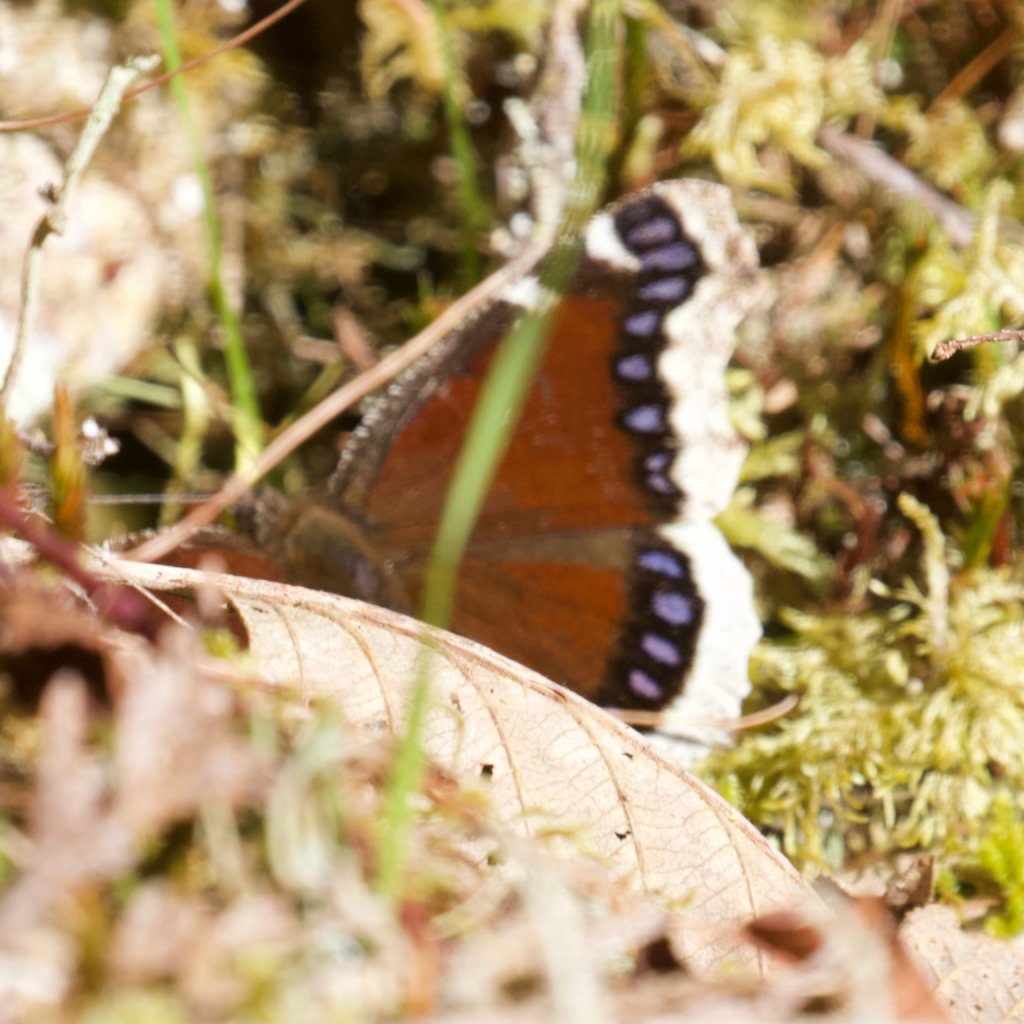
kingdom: Animalia
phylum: Arthropoda
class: Insecta
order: Lepidoptera
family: Nymphalidae
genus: Nymphalis
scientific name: Nymphalis antiopa
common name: Mourning Cloak
